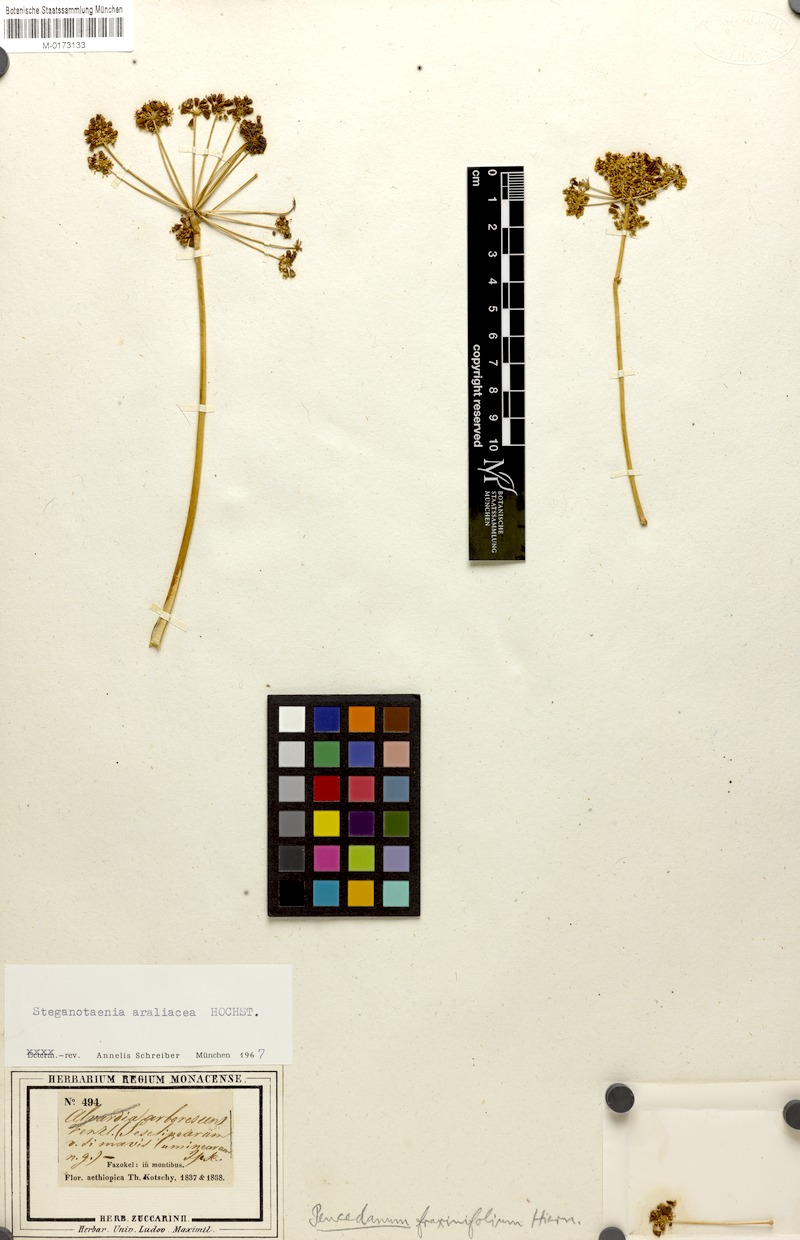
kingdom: Plantae
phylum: Tracheophyta
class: Magnoliopsida
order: Apiales
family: Apiaceae
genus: Steganotaenia
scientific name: Steganotaenia araliacea
